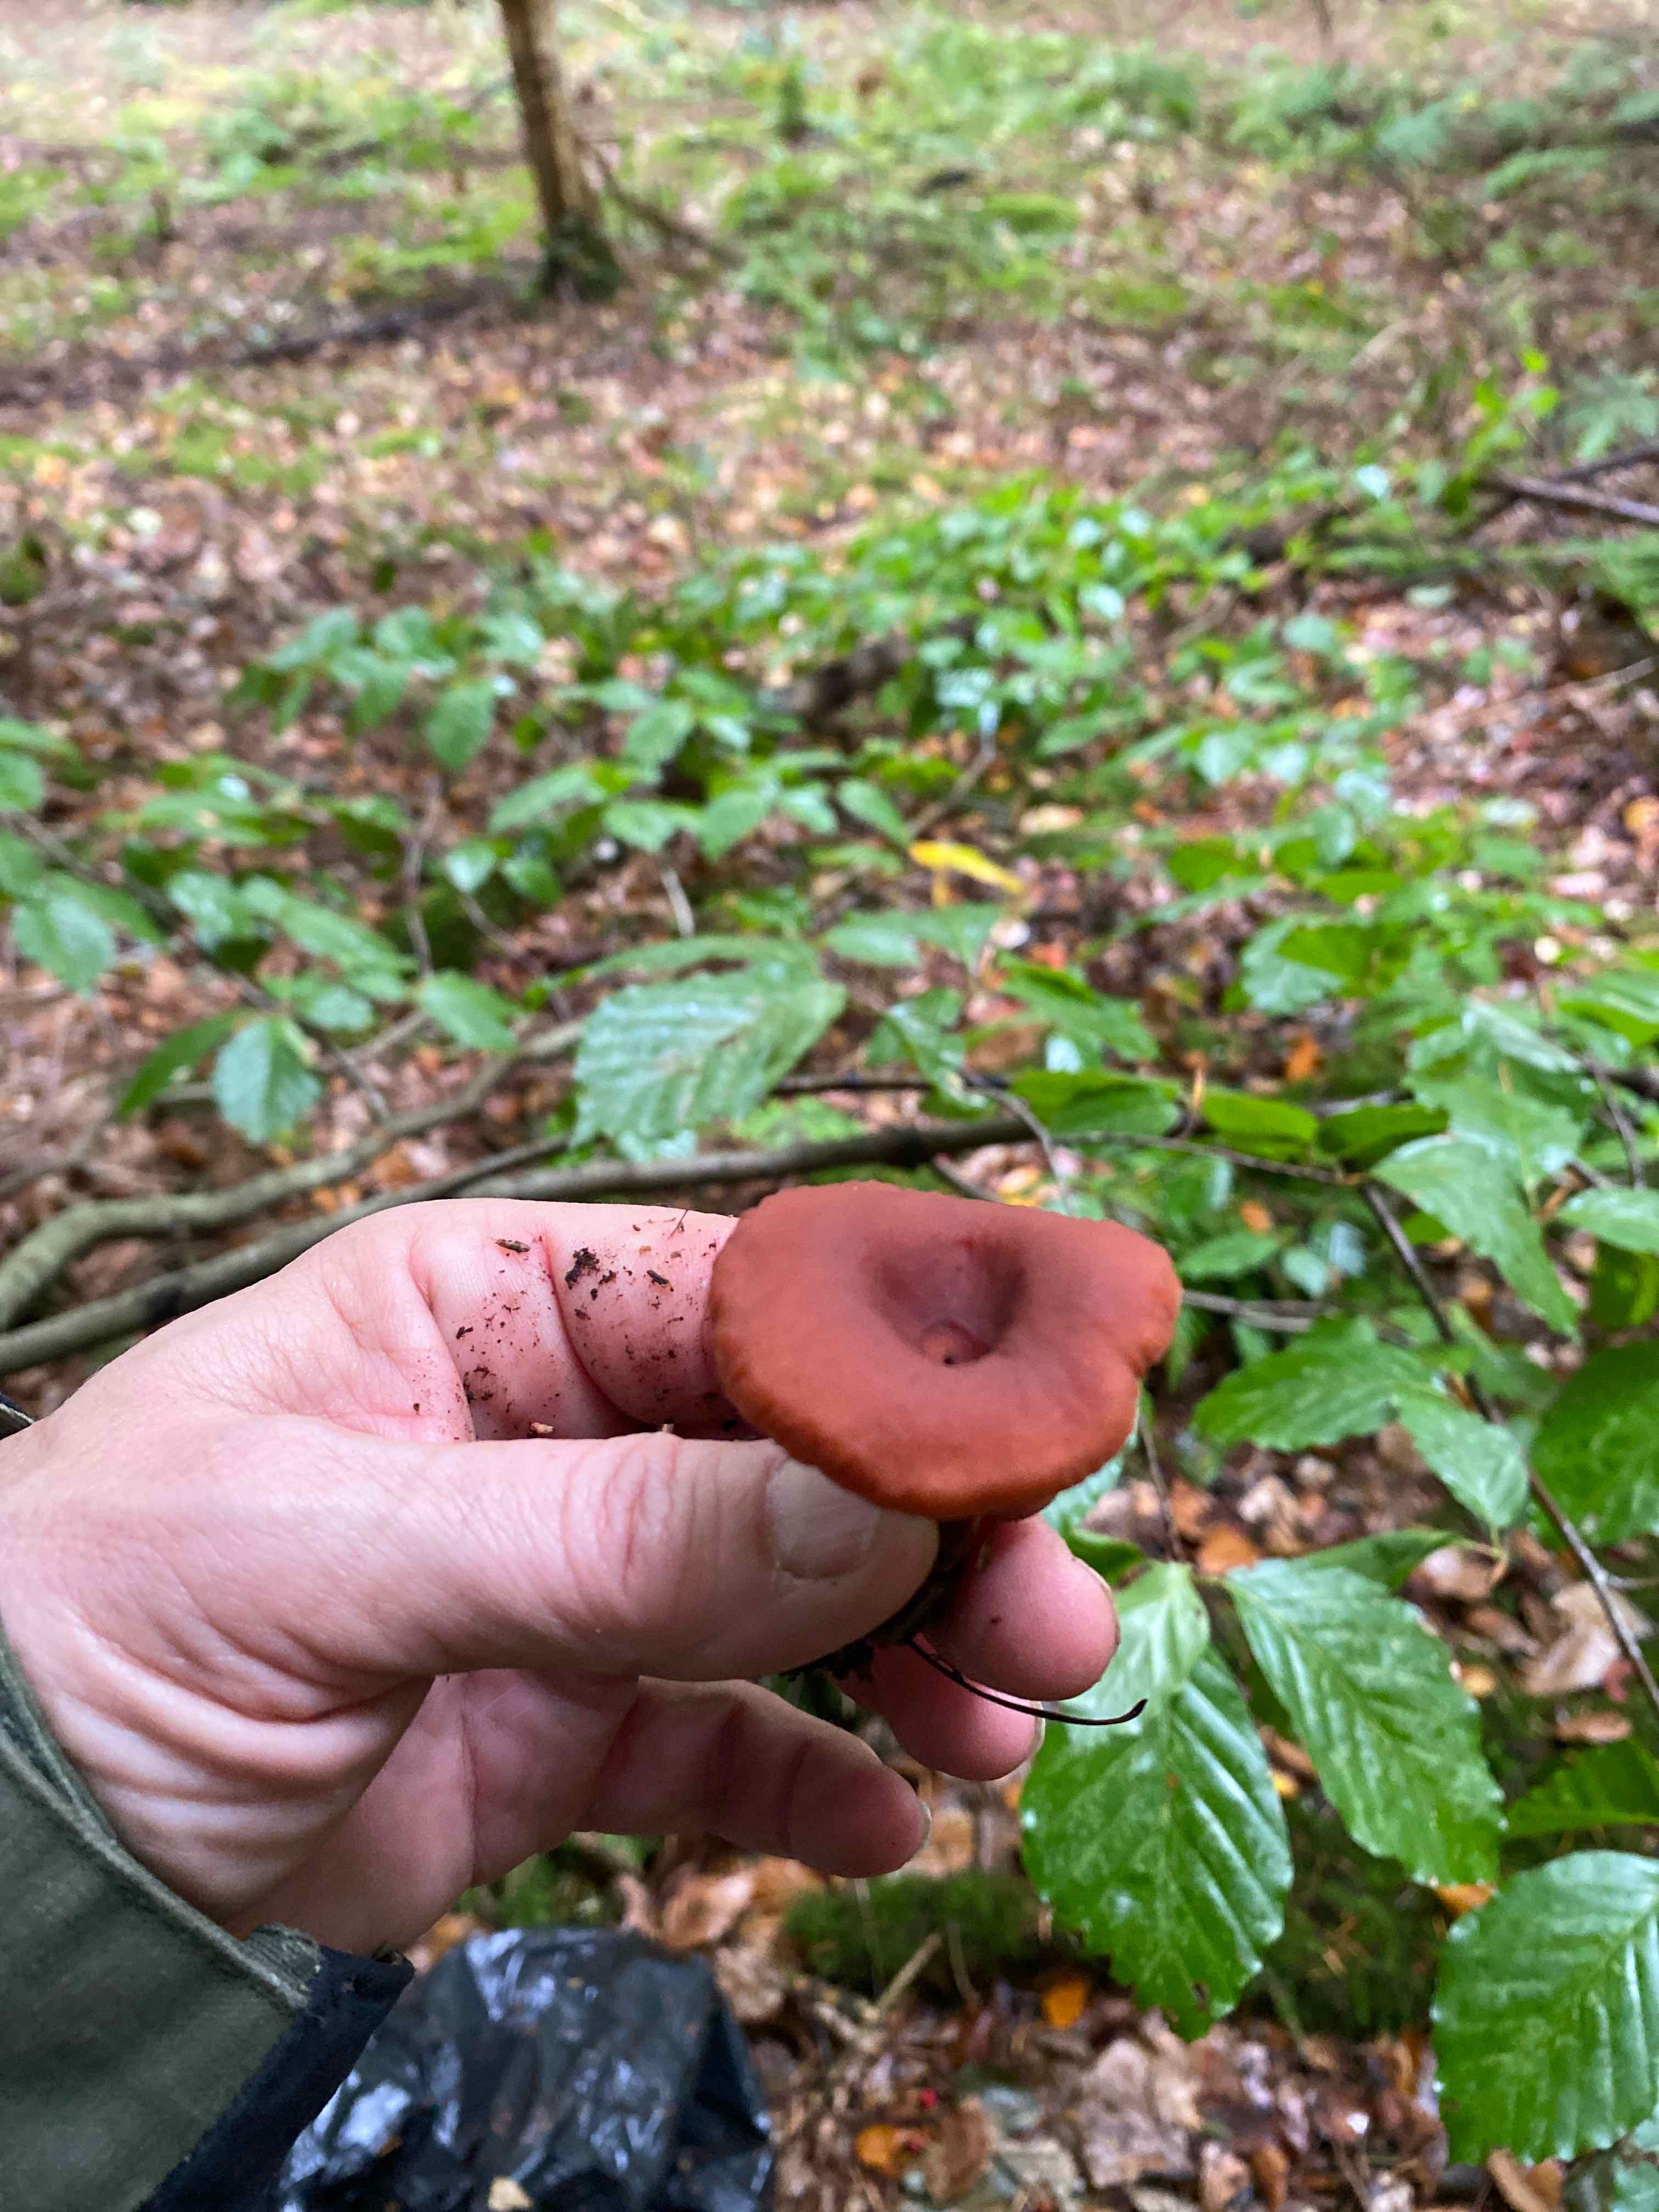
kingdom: Fungi
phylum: Basidiomycota
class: Agaricomycetes
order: Russulales
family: Russulaceae
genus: Lactarius
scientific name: Lactarius camphoratus
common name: kamfer-mælkehat
